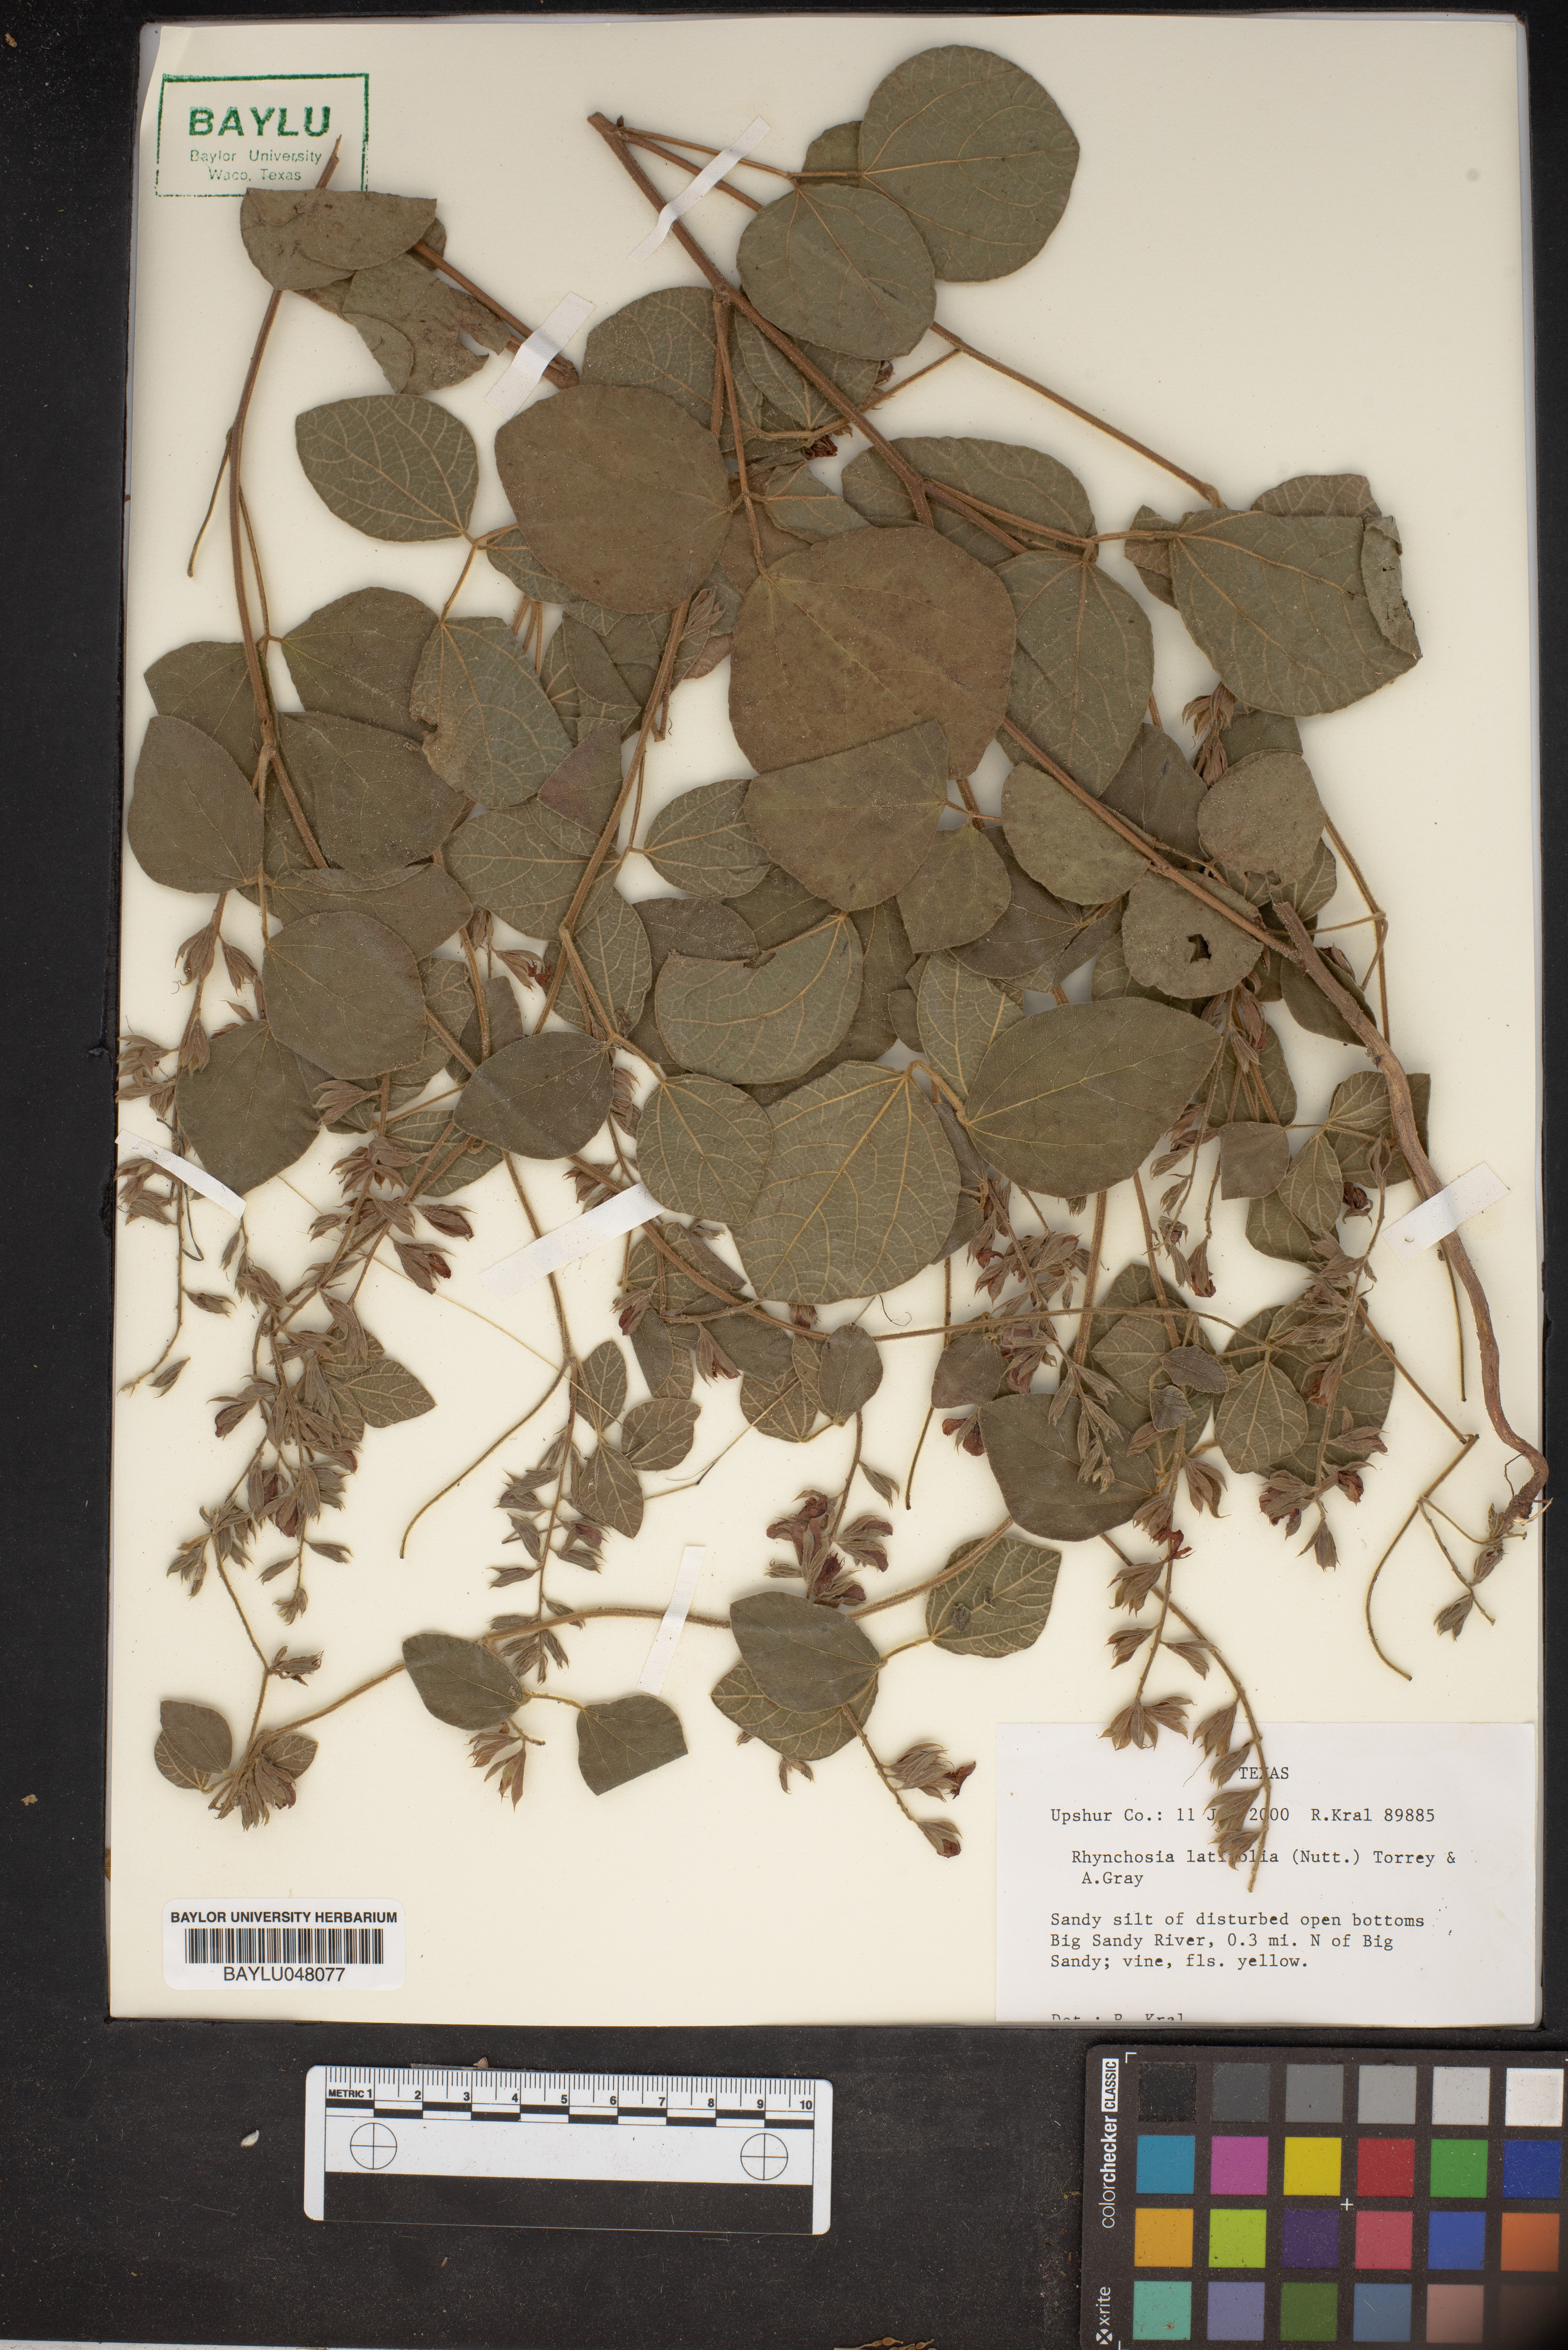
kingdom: Plantae
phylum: Tracheophyta
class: Magnoliopsida
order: Fabales
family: Fabaceae
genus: Rhynchosia
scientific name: Rhynchosia latifolia
